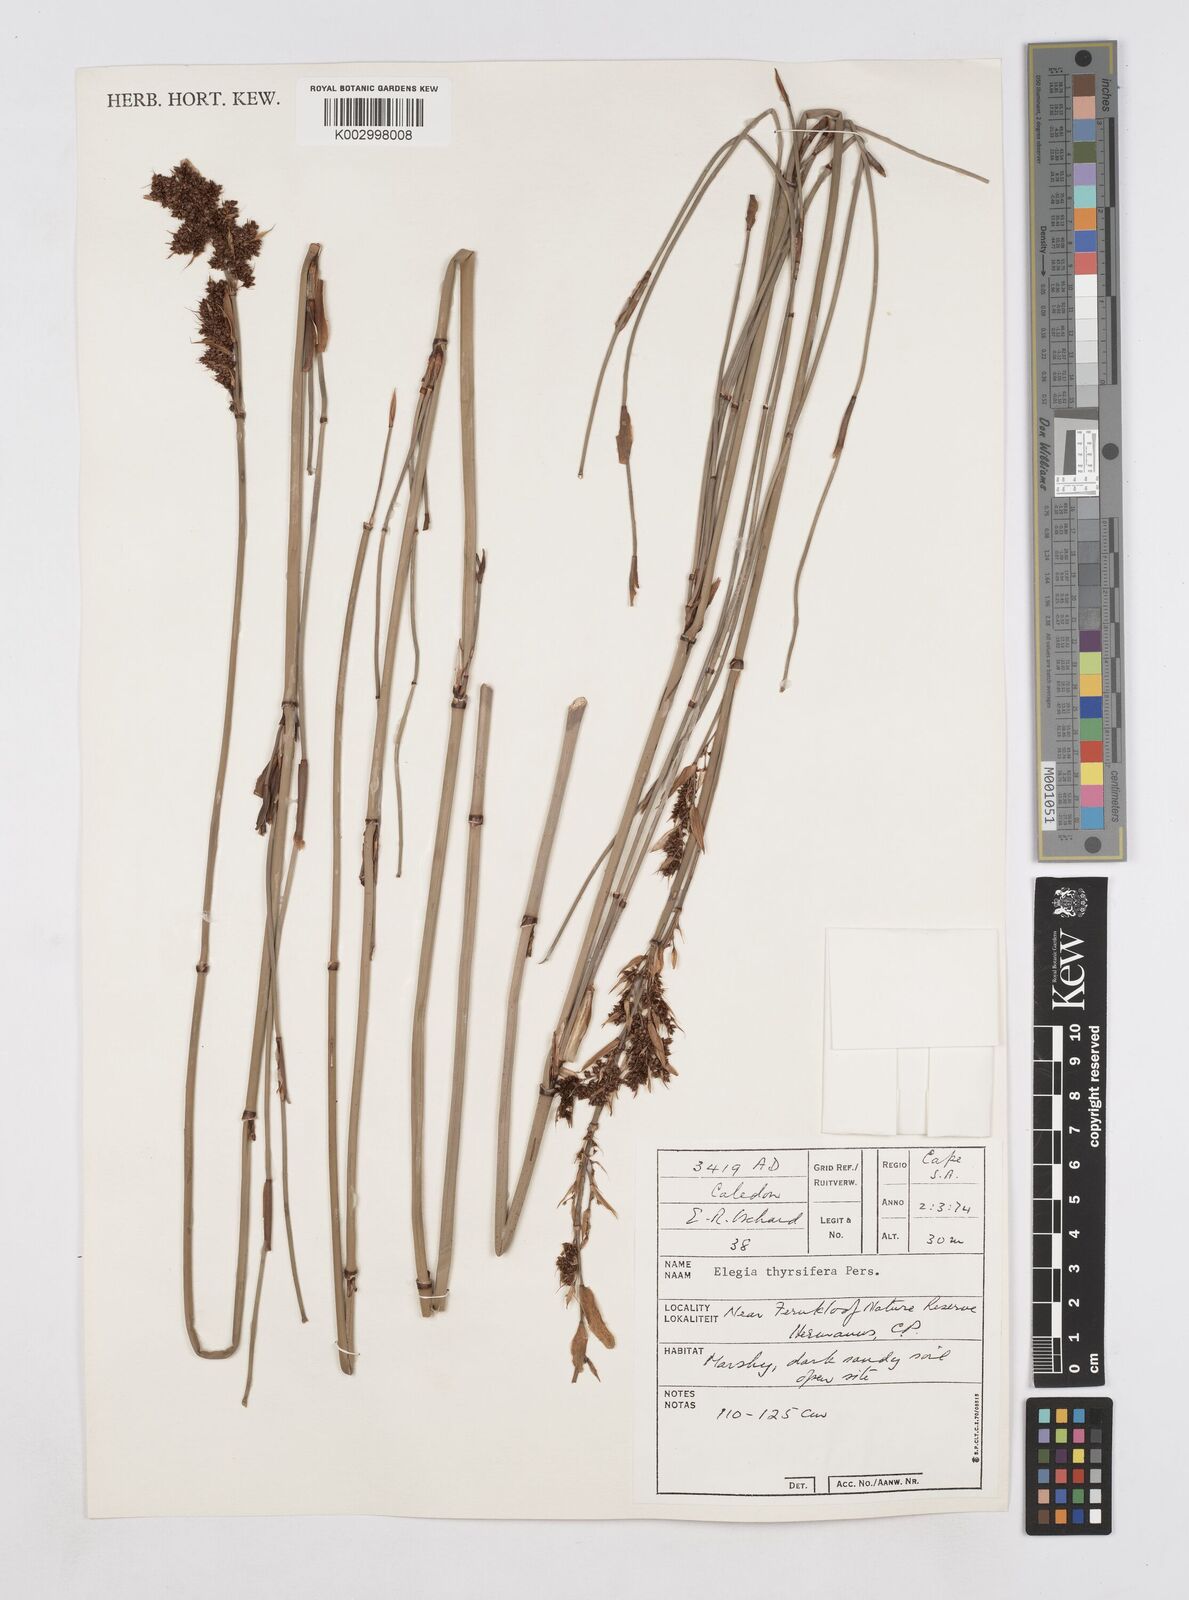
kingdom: Plantae
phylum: Tracheophyta
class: Liliopsida
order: Poales
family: Restionaceae
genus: Elegia
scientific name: Elegia thyrsifera
